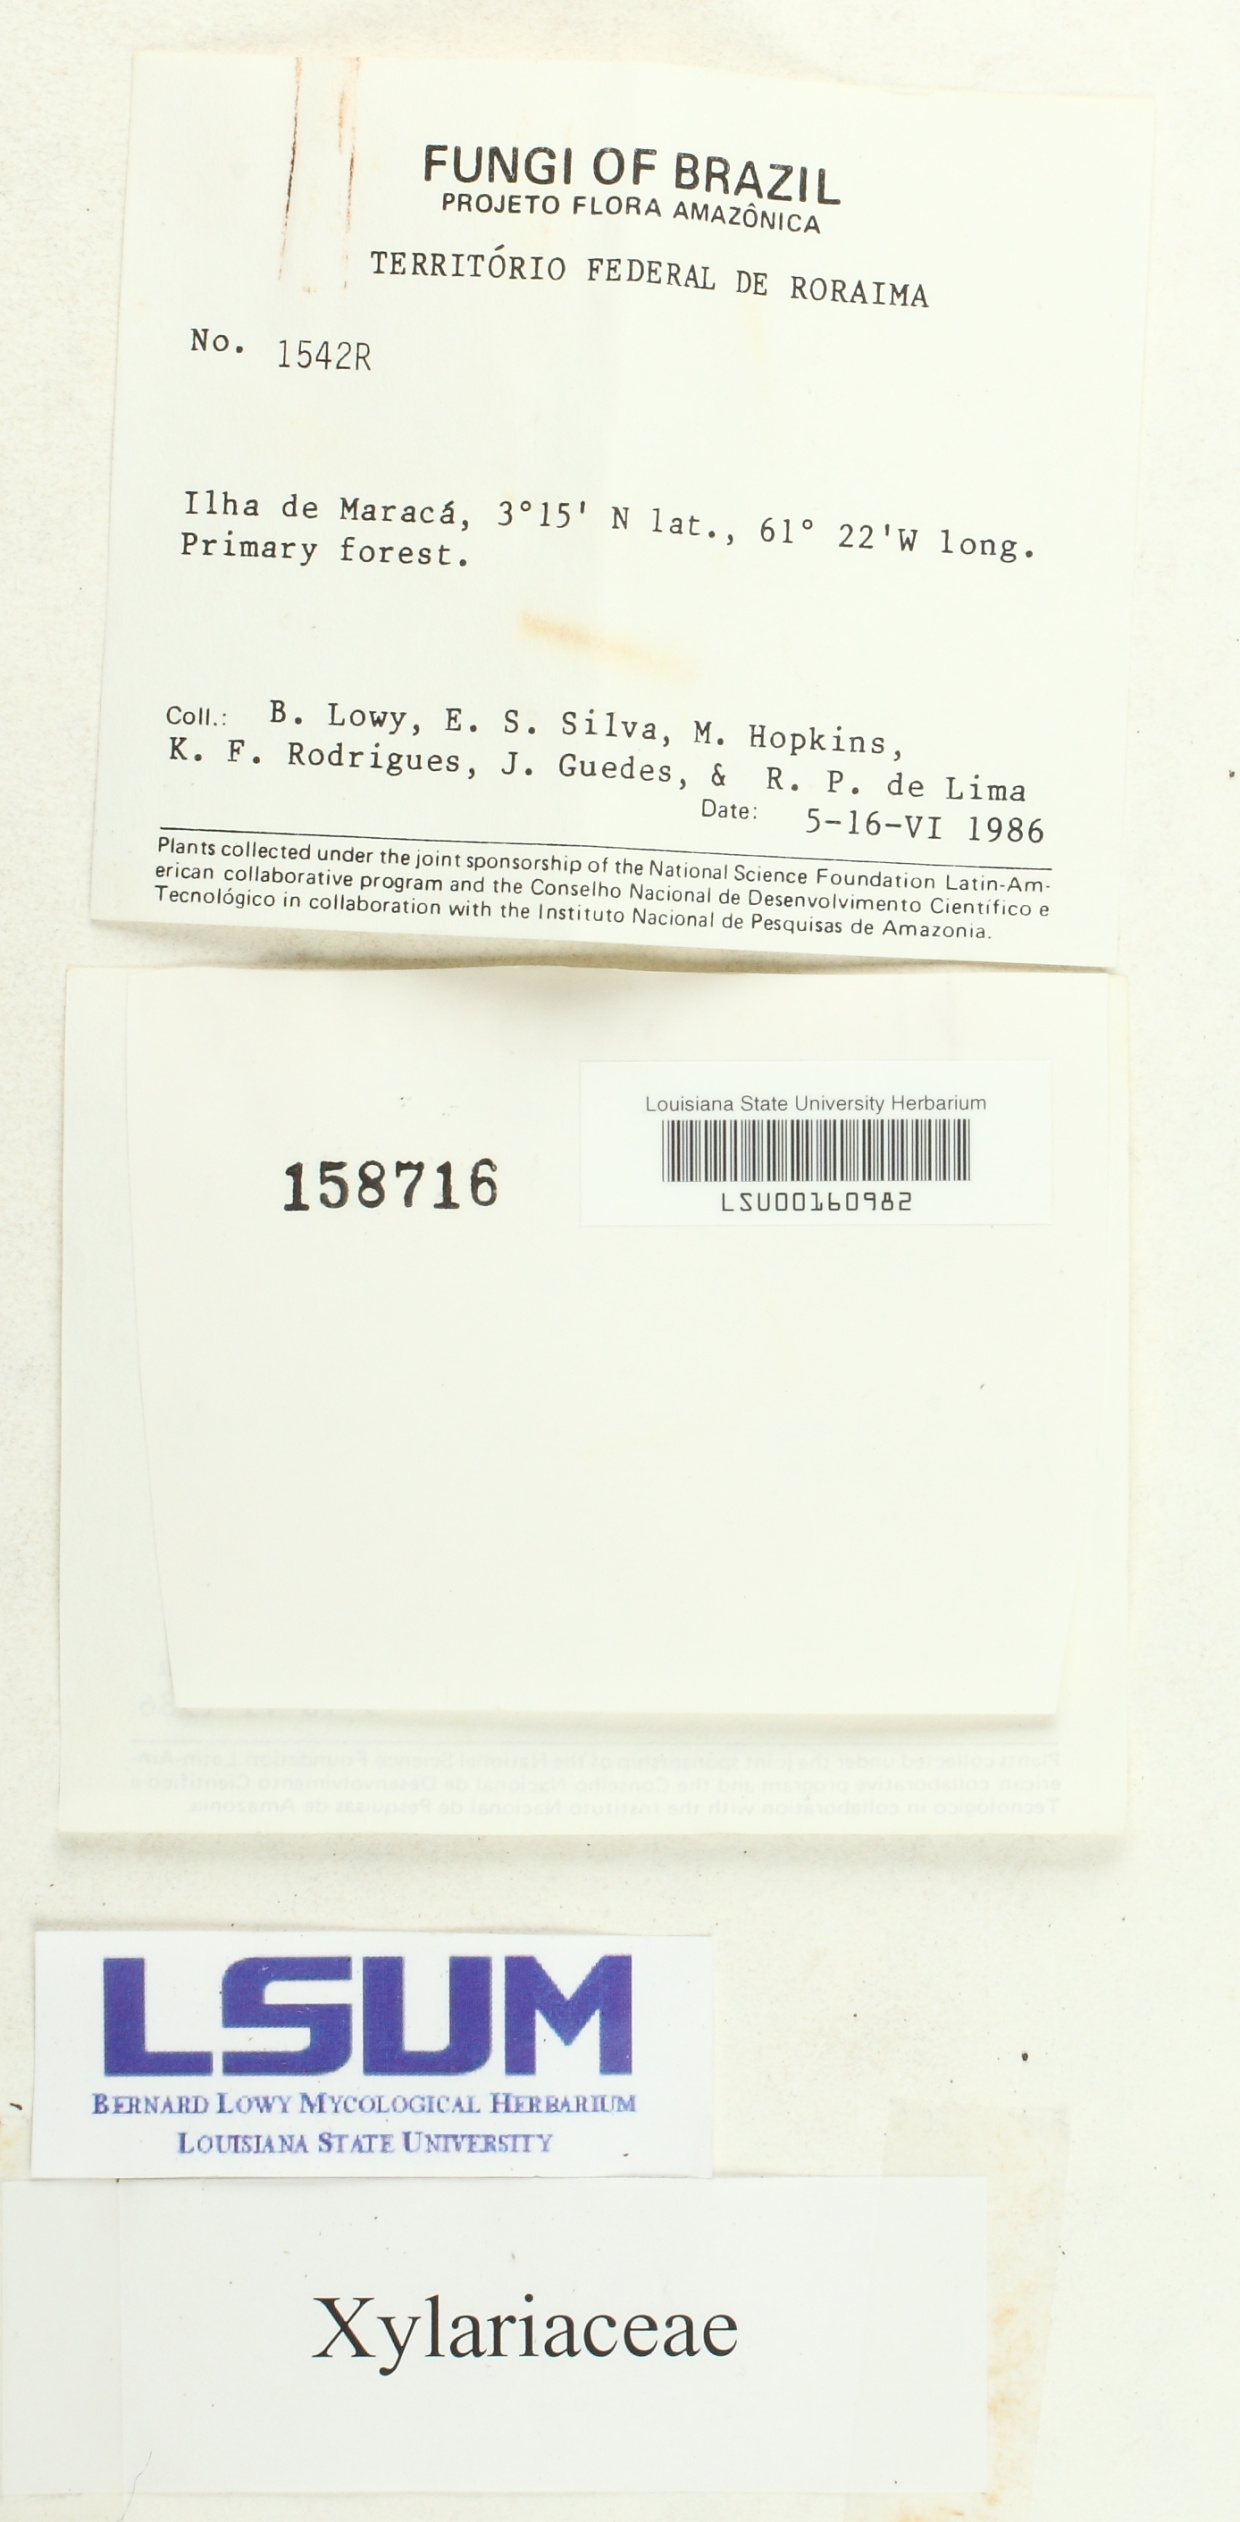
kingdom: Fungi
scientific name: Fungi
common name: Fungi
